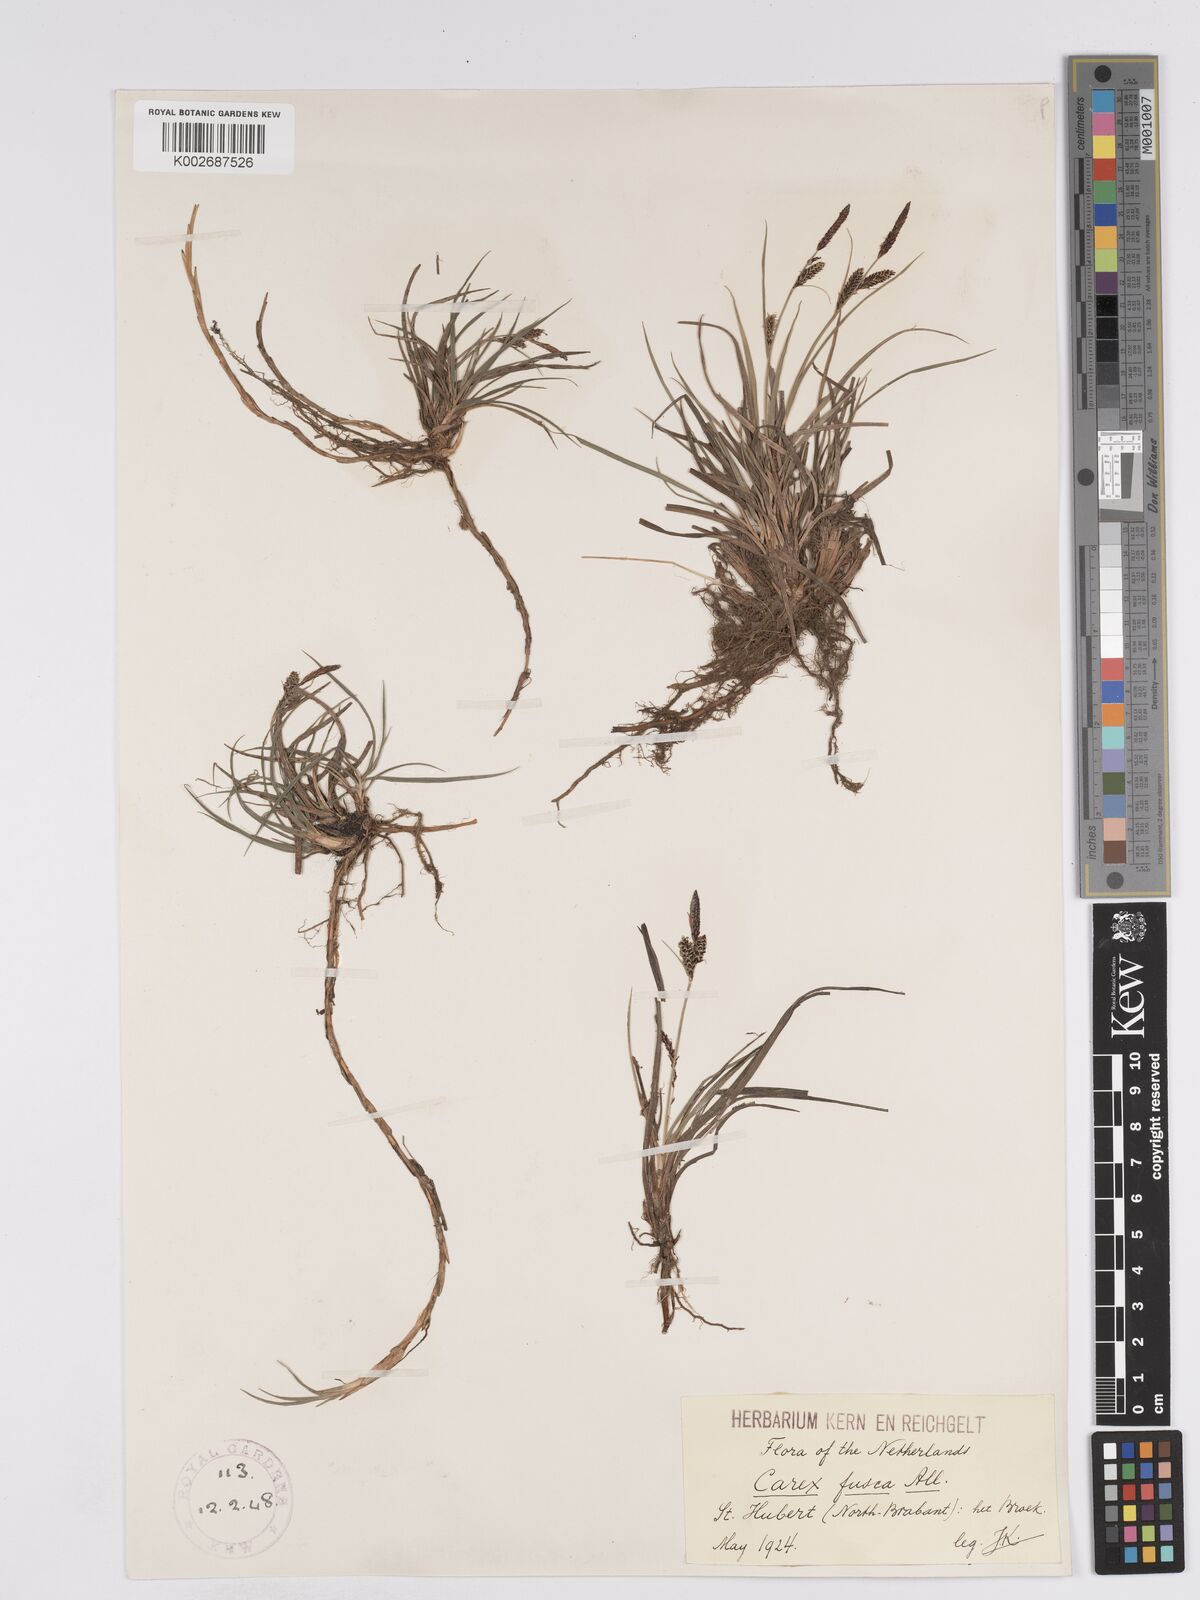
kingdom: Plantae
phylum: Tracheophyta
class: Liliopsida
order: Poales
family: Cyperaceae
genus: Carex
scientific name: Carex nigra
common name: Common sedge
